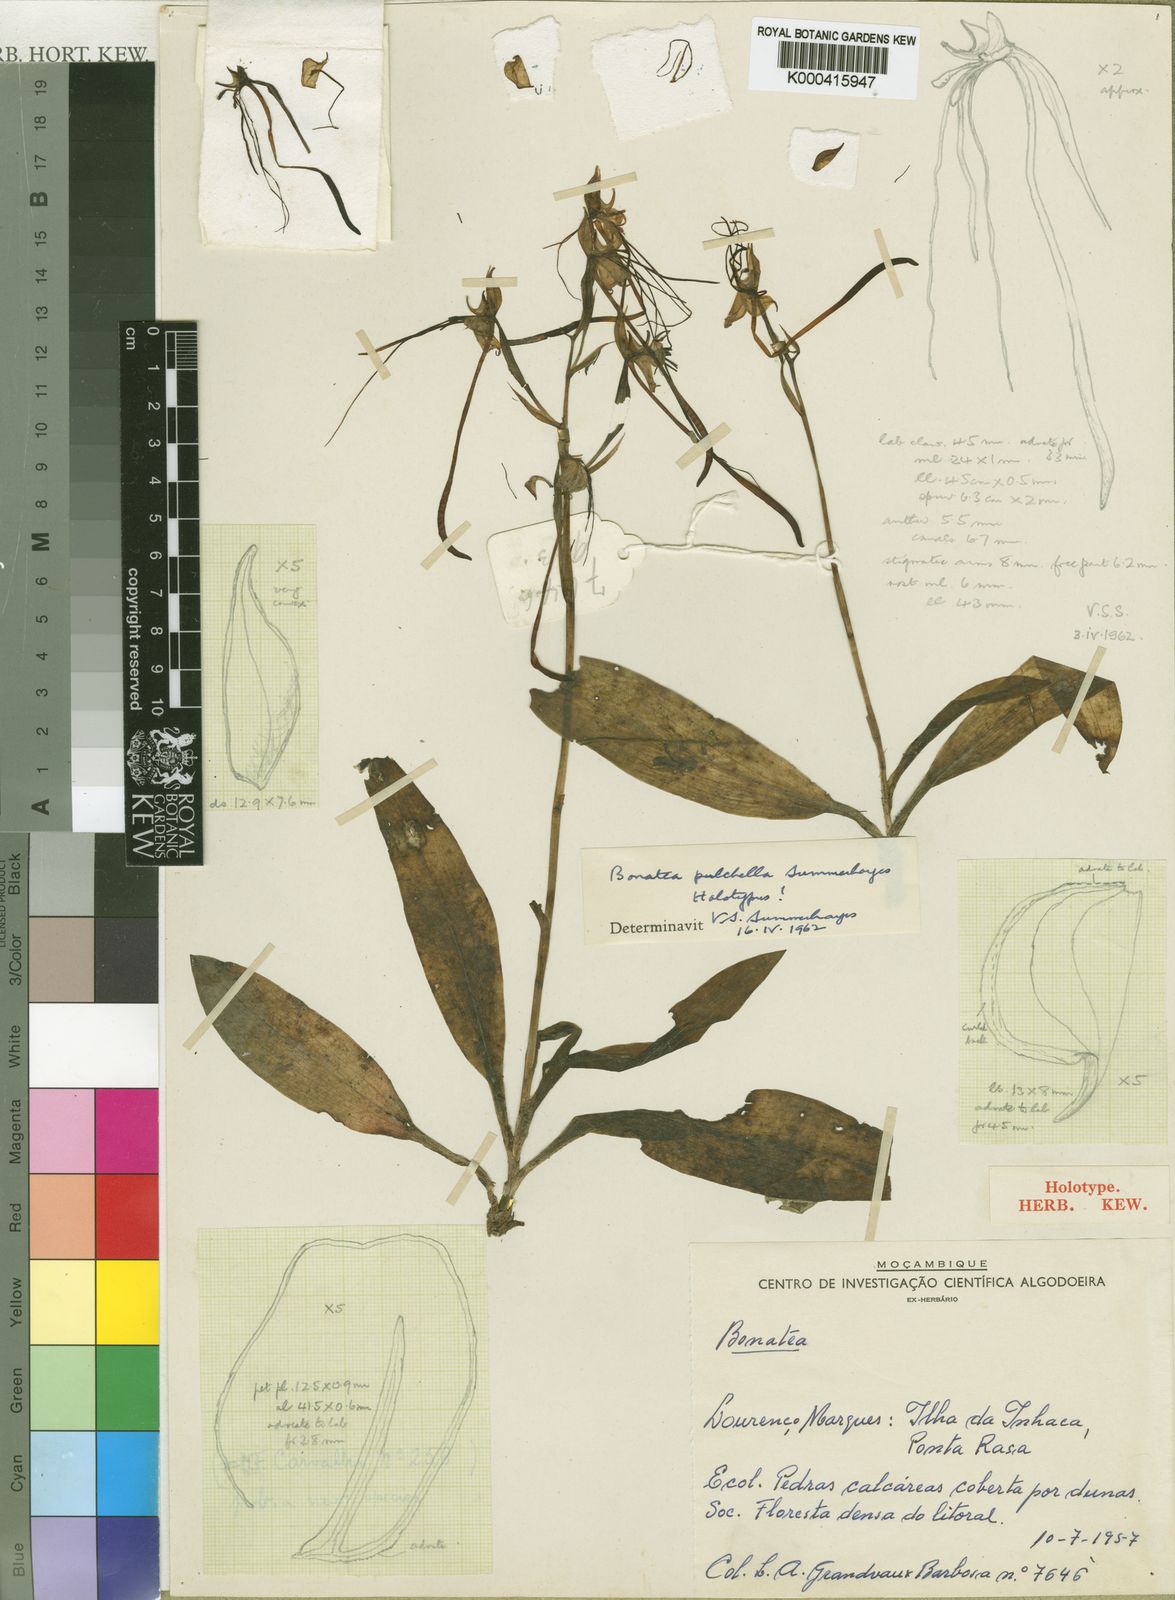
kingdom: Plantae
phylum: Tracheophyta
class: Liliopsida
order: Asparagales
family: Orchidaceae
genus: Bonatea
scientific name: Bonatea pulchella
